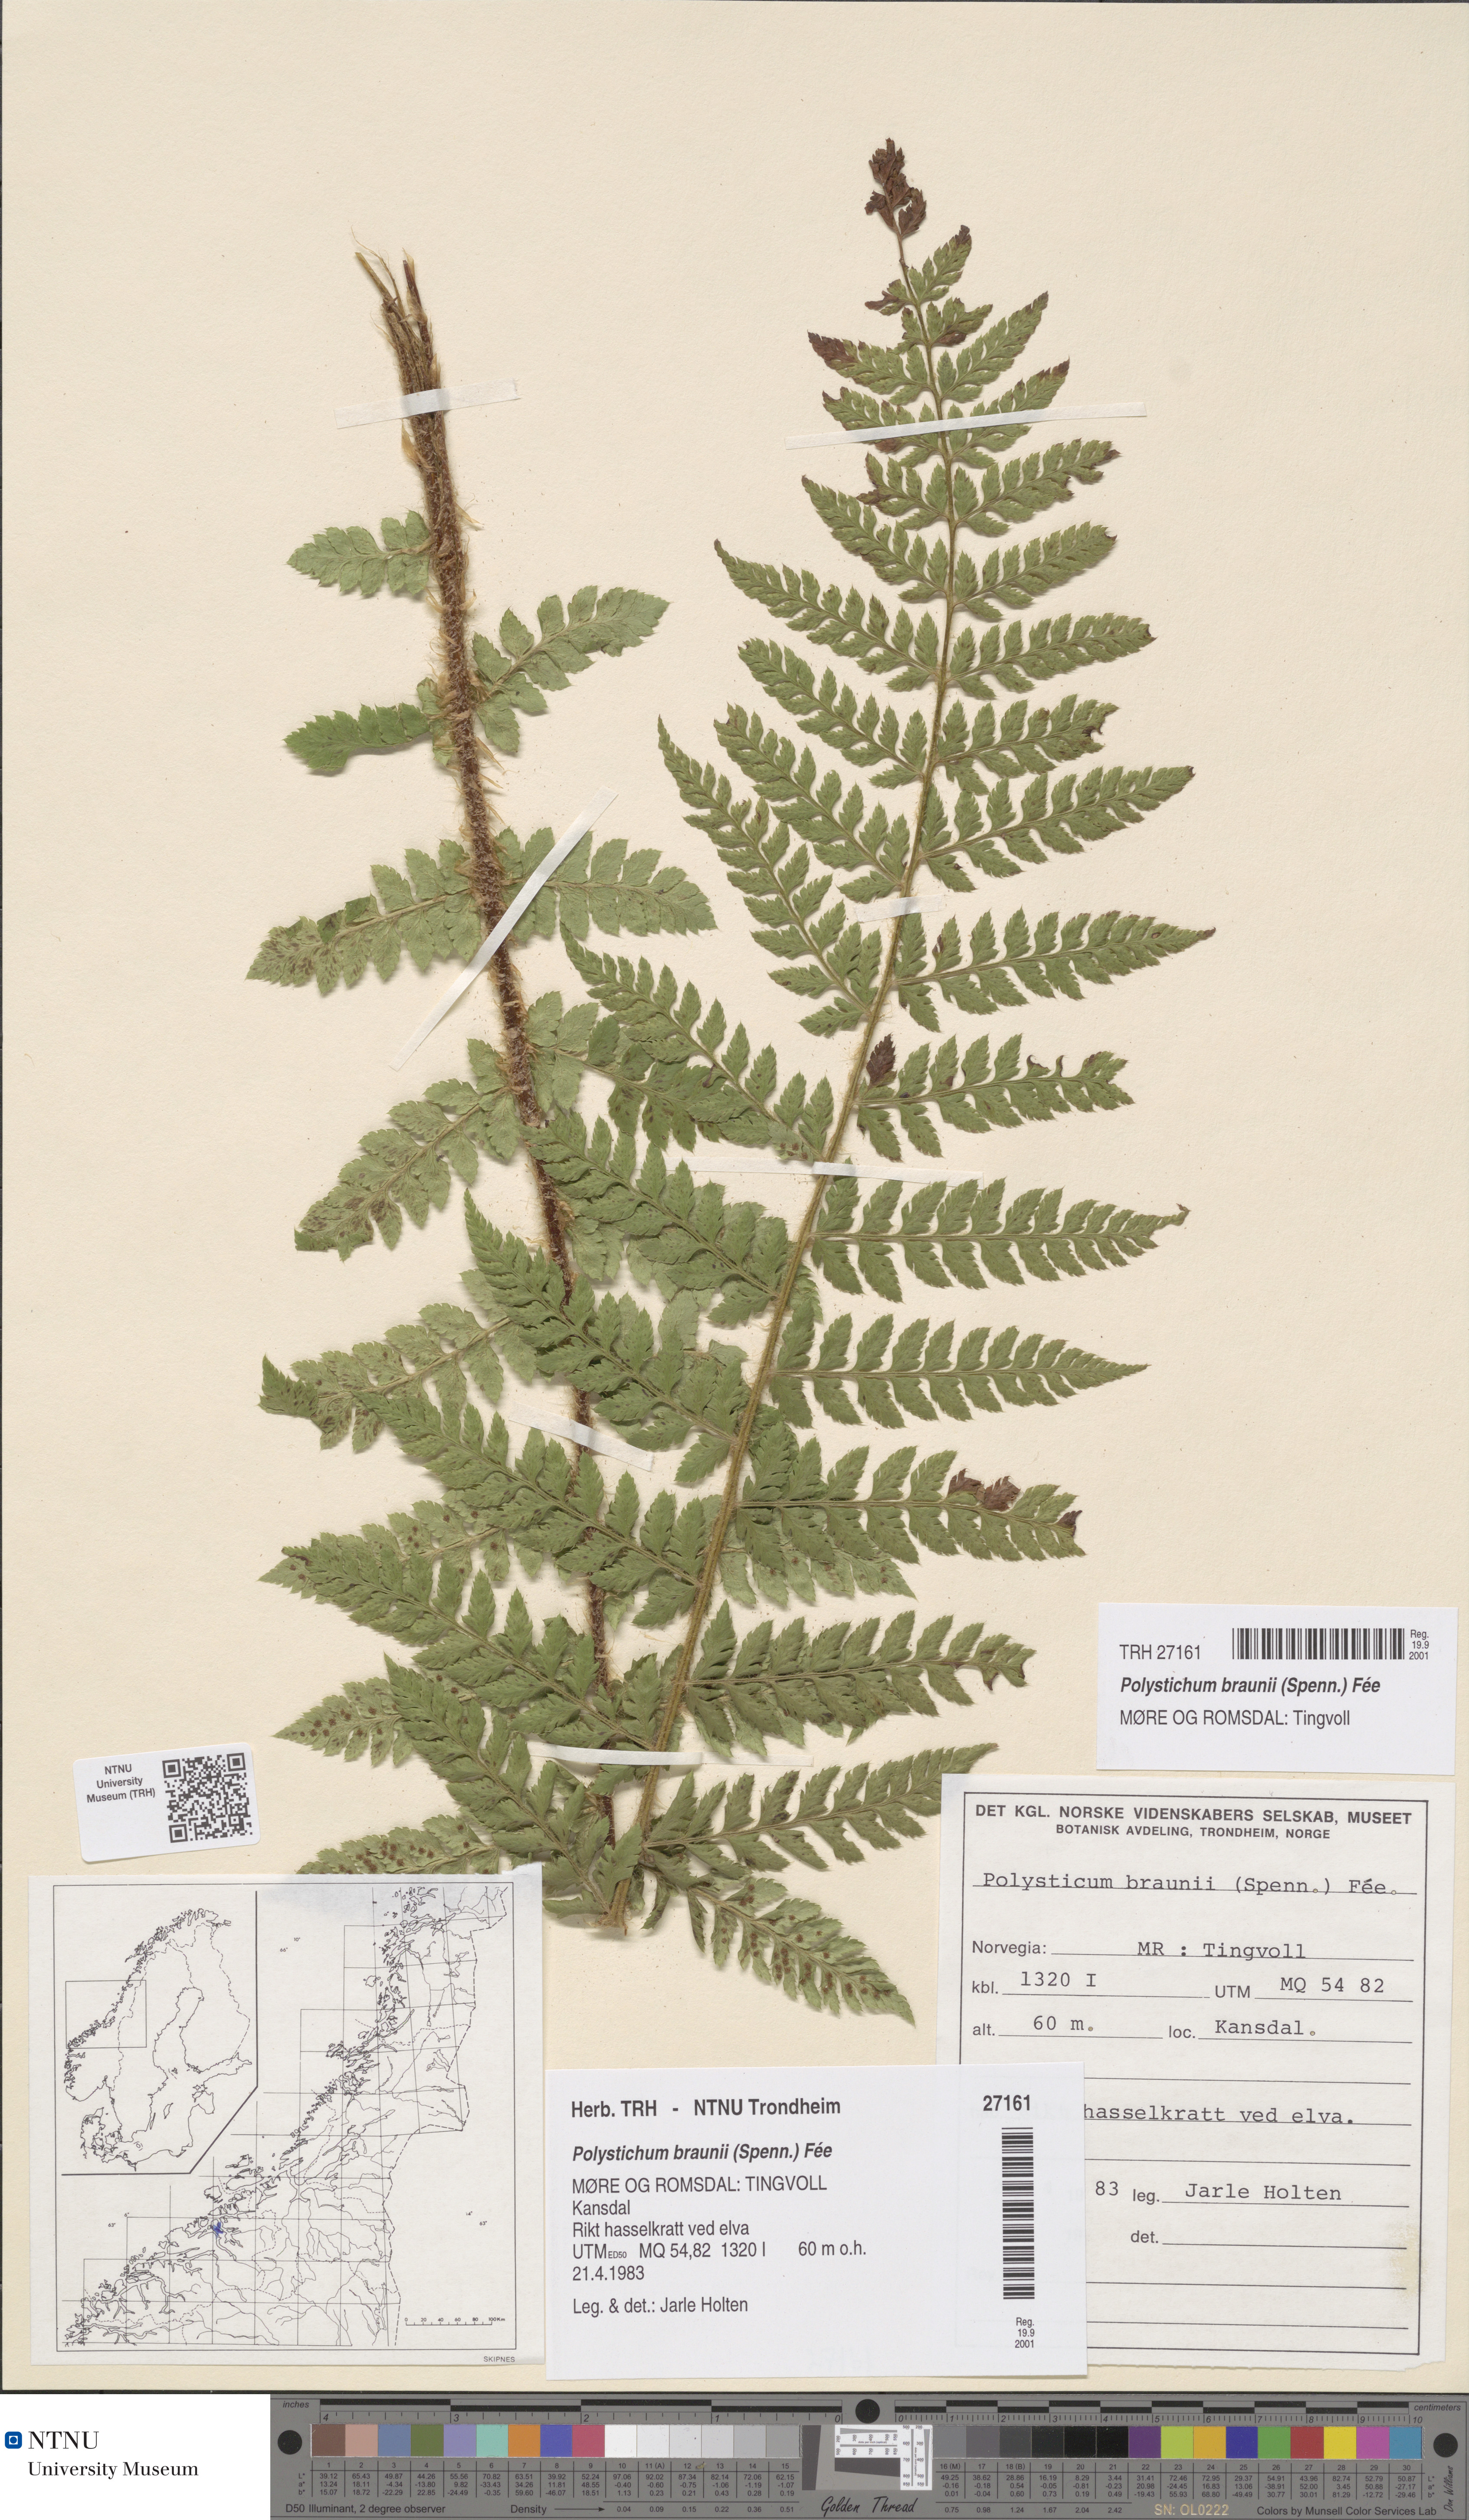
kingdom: Plantae
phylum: Tracheophyta
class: Polypodiopsida
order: Polypodiales
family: Dryopteridaceae
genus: Polystichum
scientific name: Polystichum braunii
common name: Braun's holly fern
